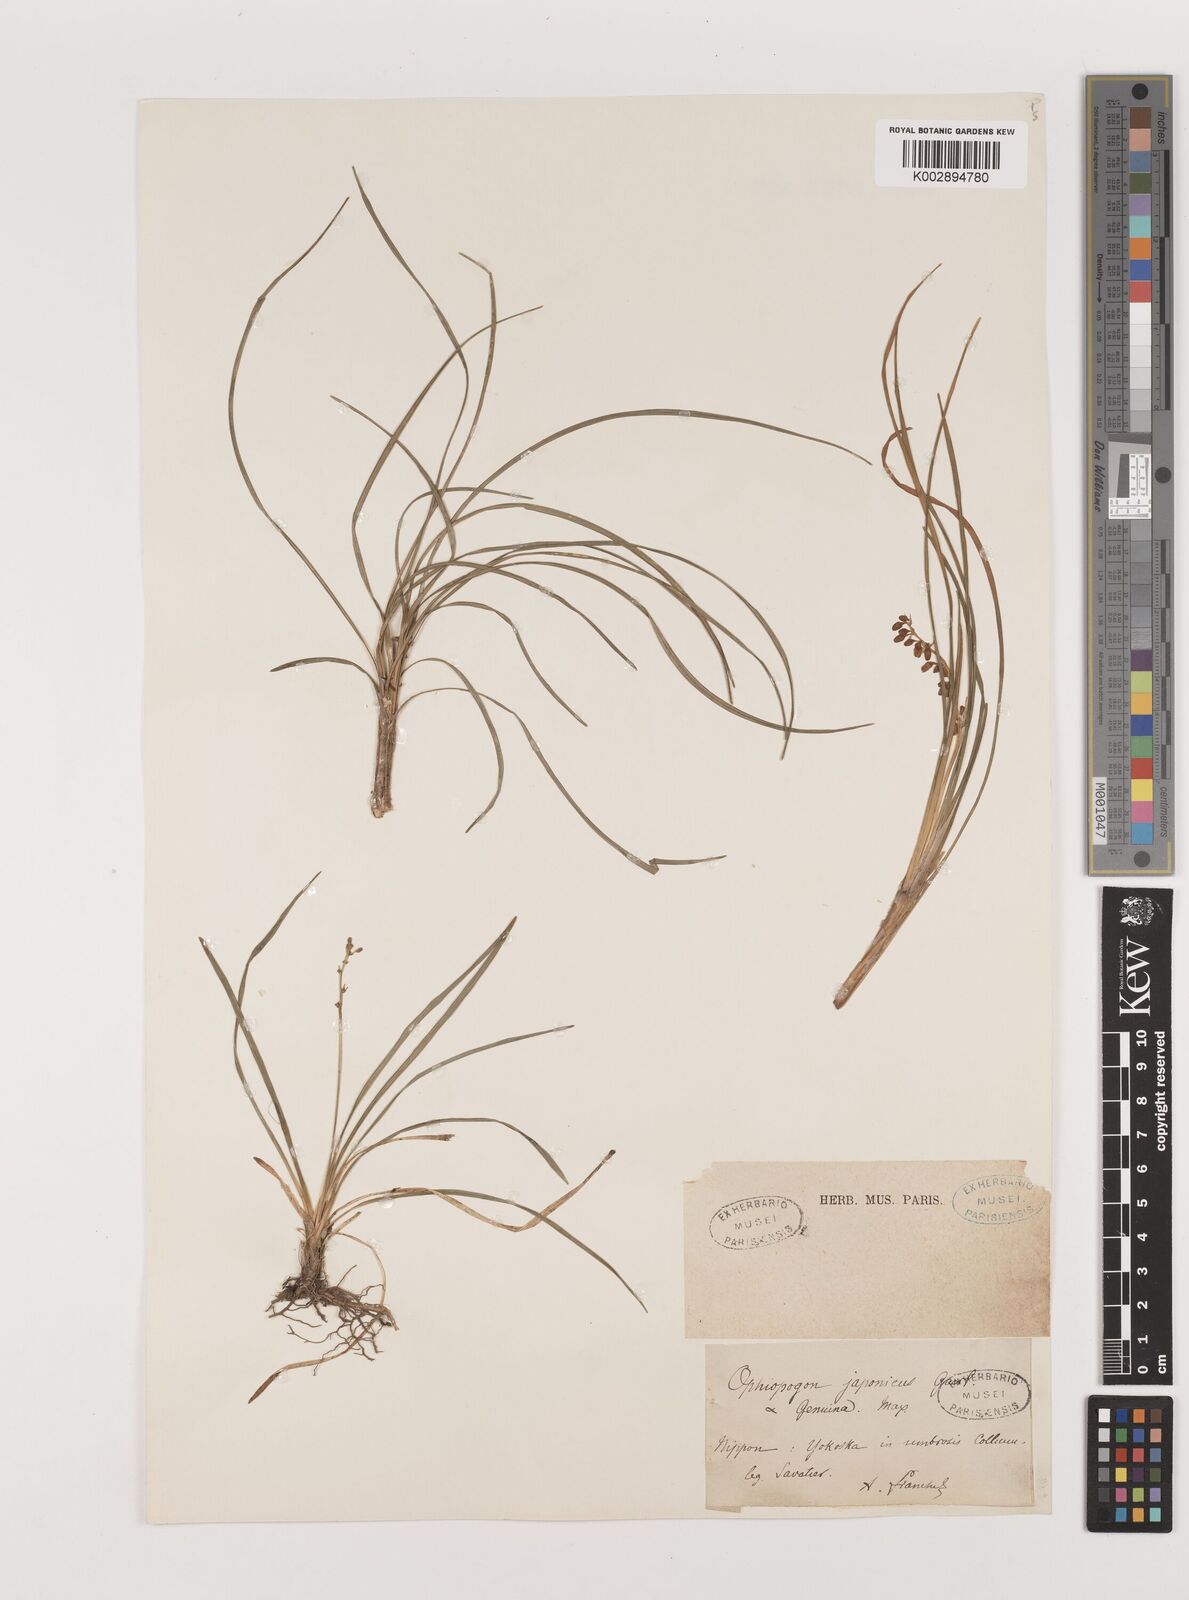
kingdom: Plantae
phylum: Tracheophyta
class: Liliopsida
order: Asparagales
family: Asparagaceae
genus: Ophiopogon
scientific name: Ophiopogon japonicus
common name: Dwarf lilyturf
